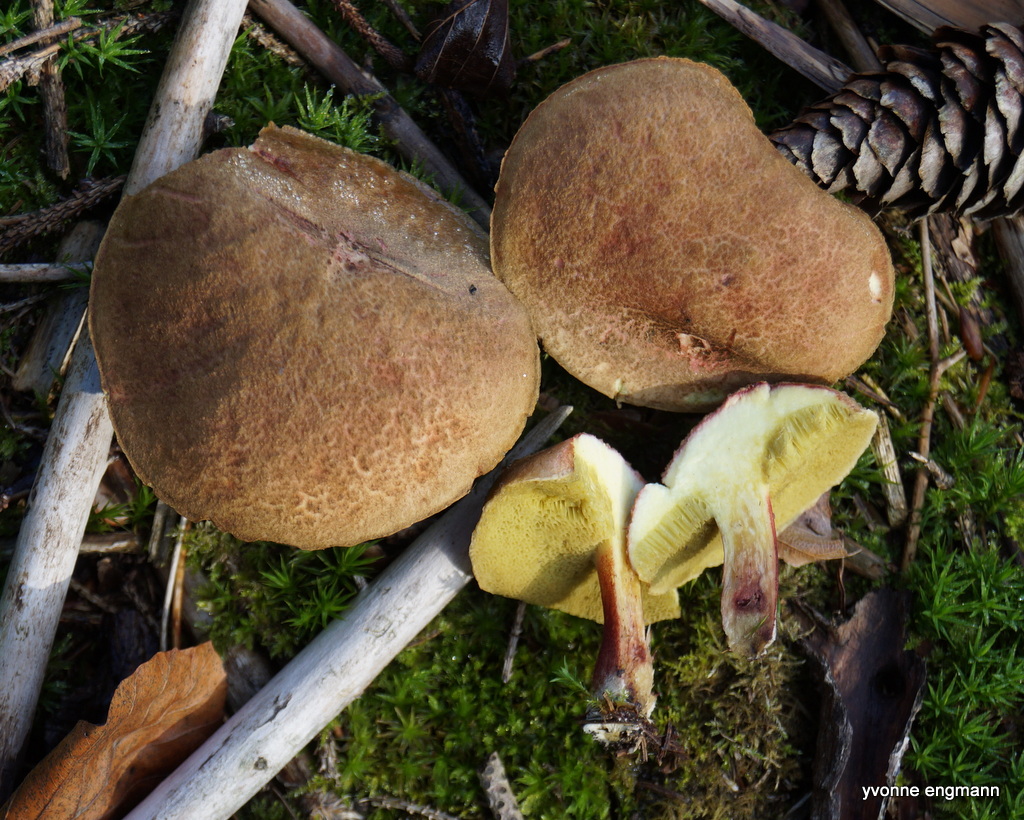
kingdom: Fungi
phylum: Basidiomycota
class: Agaricomycetes
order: Boletales
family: Boletaceae
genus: Xerocomellus
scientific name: Xerocomellus chrysenteron
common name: rødsprukken rørhat
